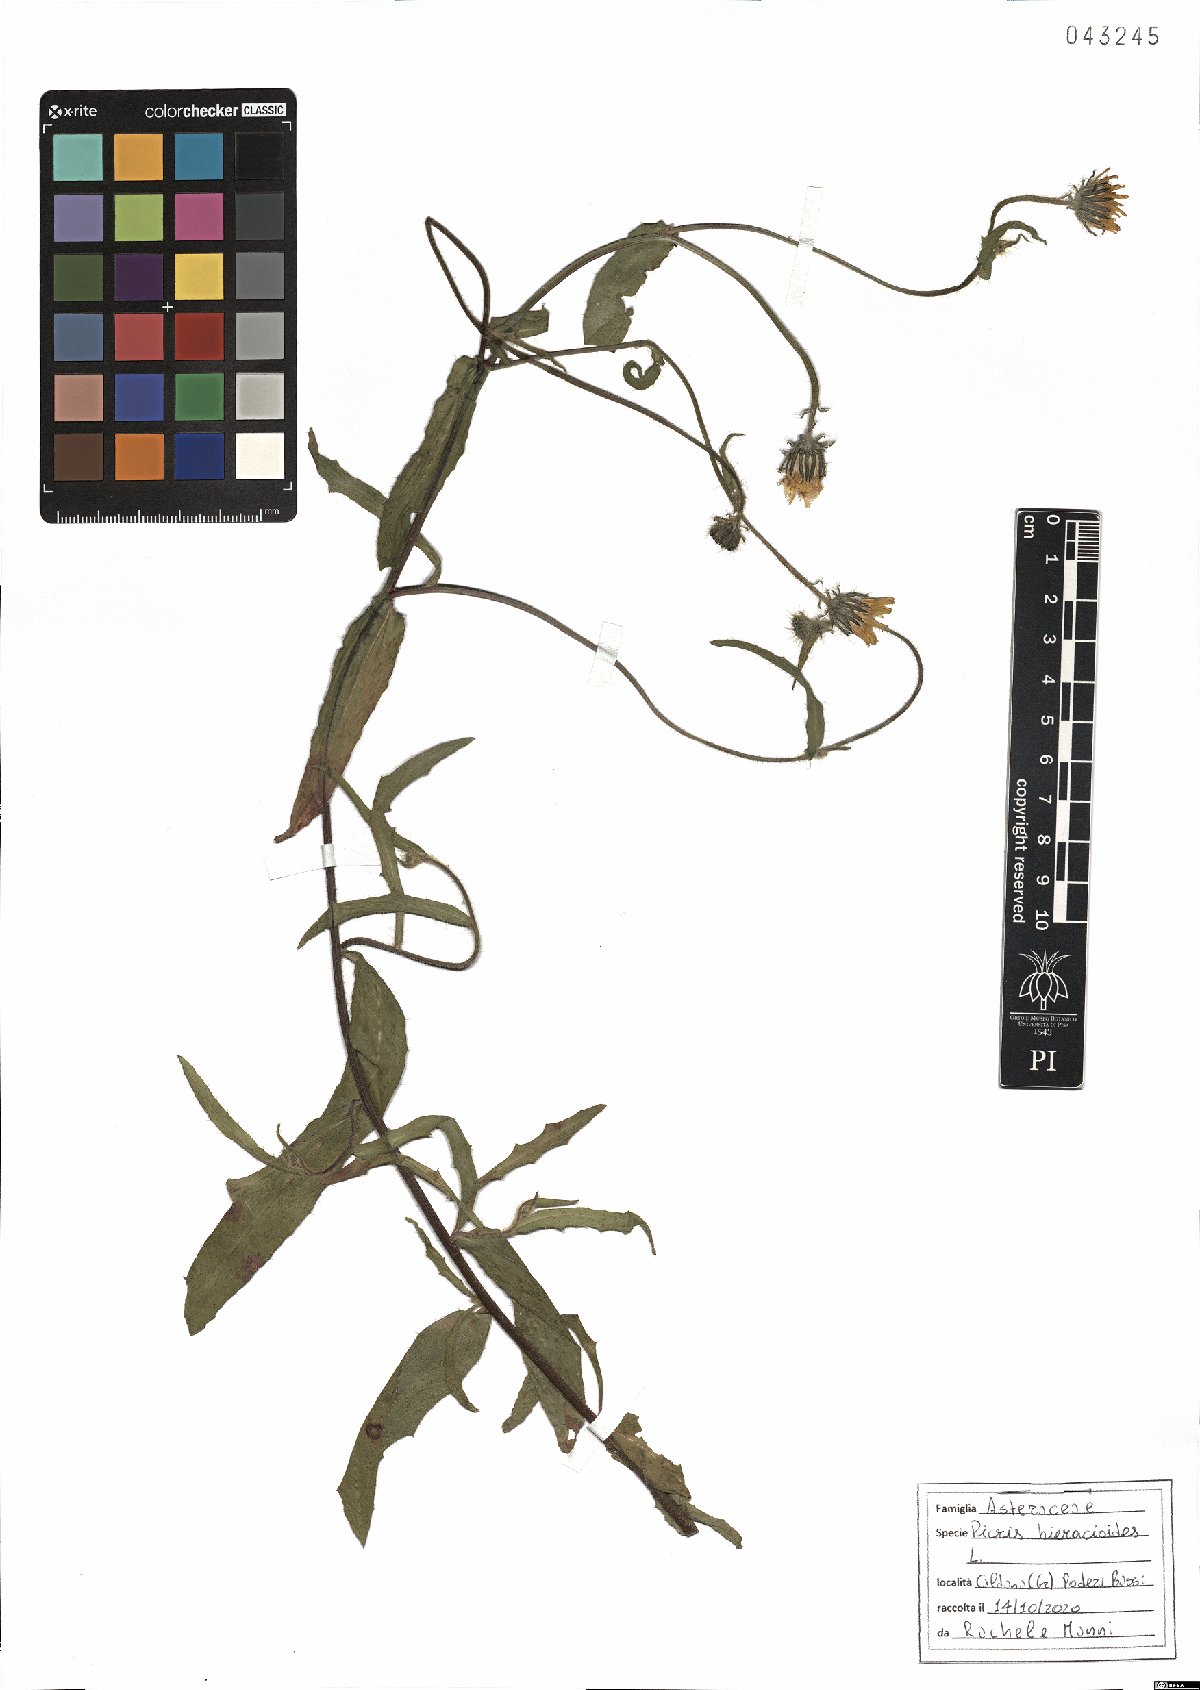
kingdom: Plantae
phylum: Tracheophyta
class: Magnoliopsida
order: Asterales
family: Asteraceae
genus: Picris
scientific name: Picris hieracioides
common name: Hawkweed oxtongue
